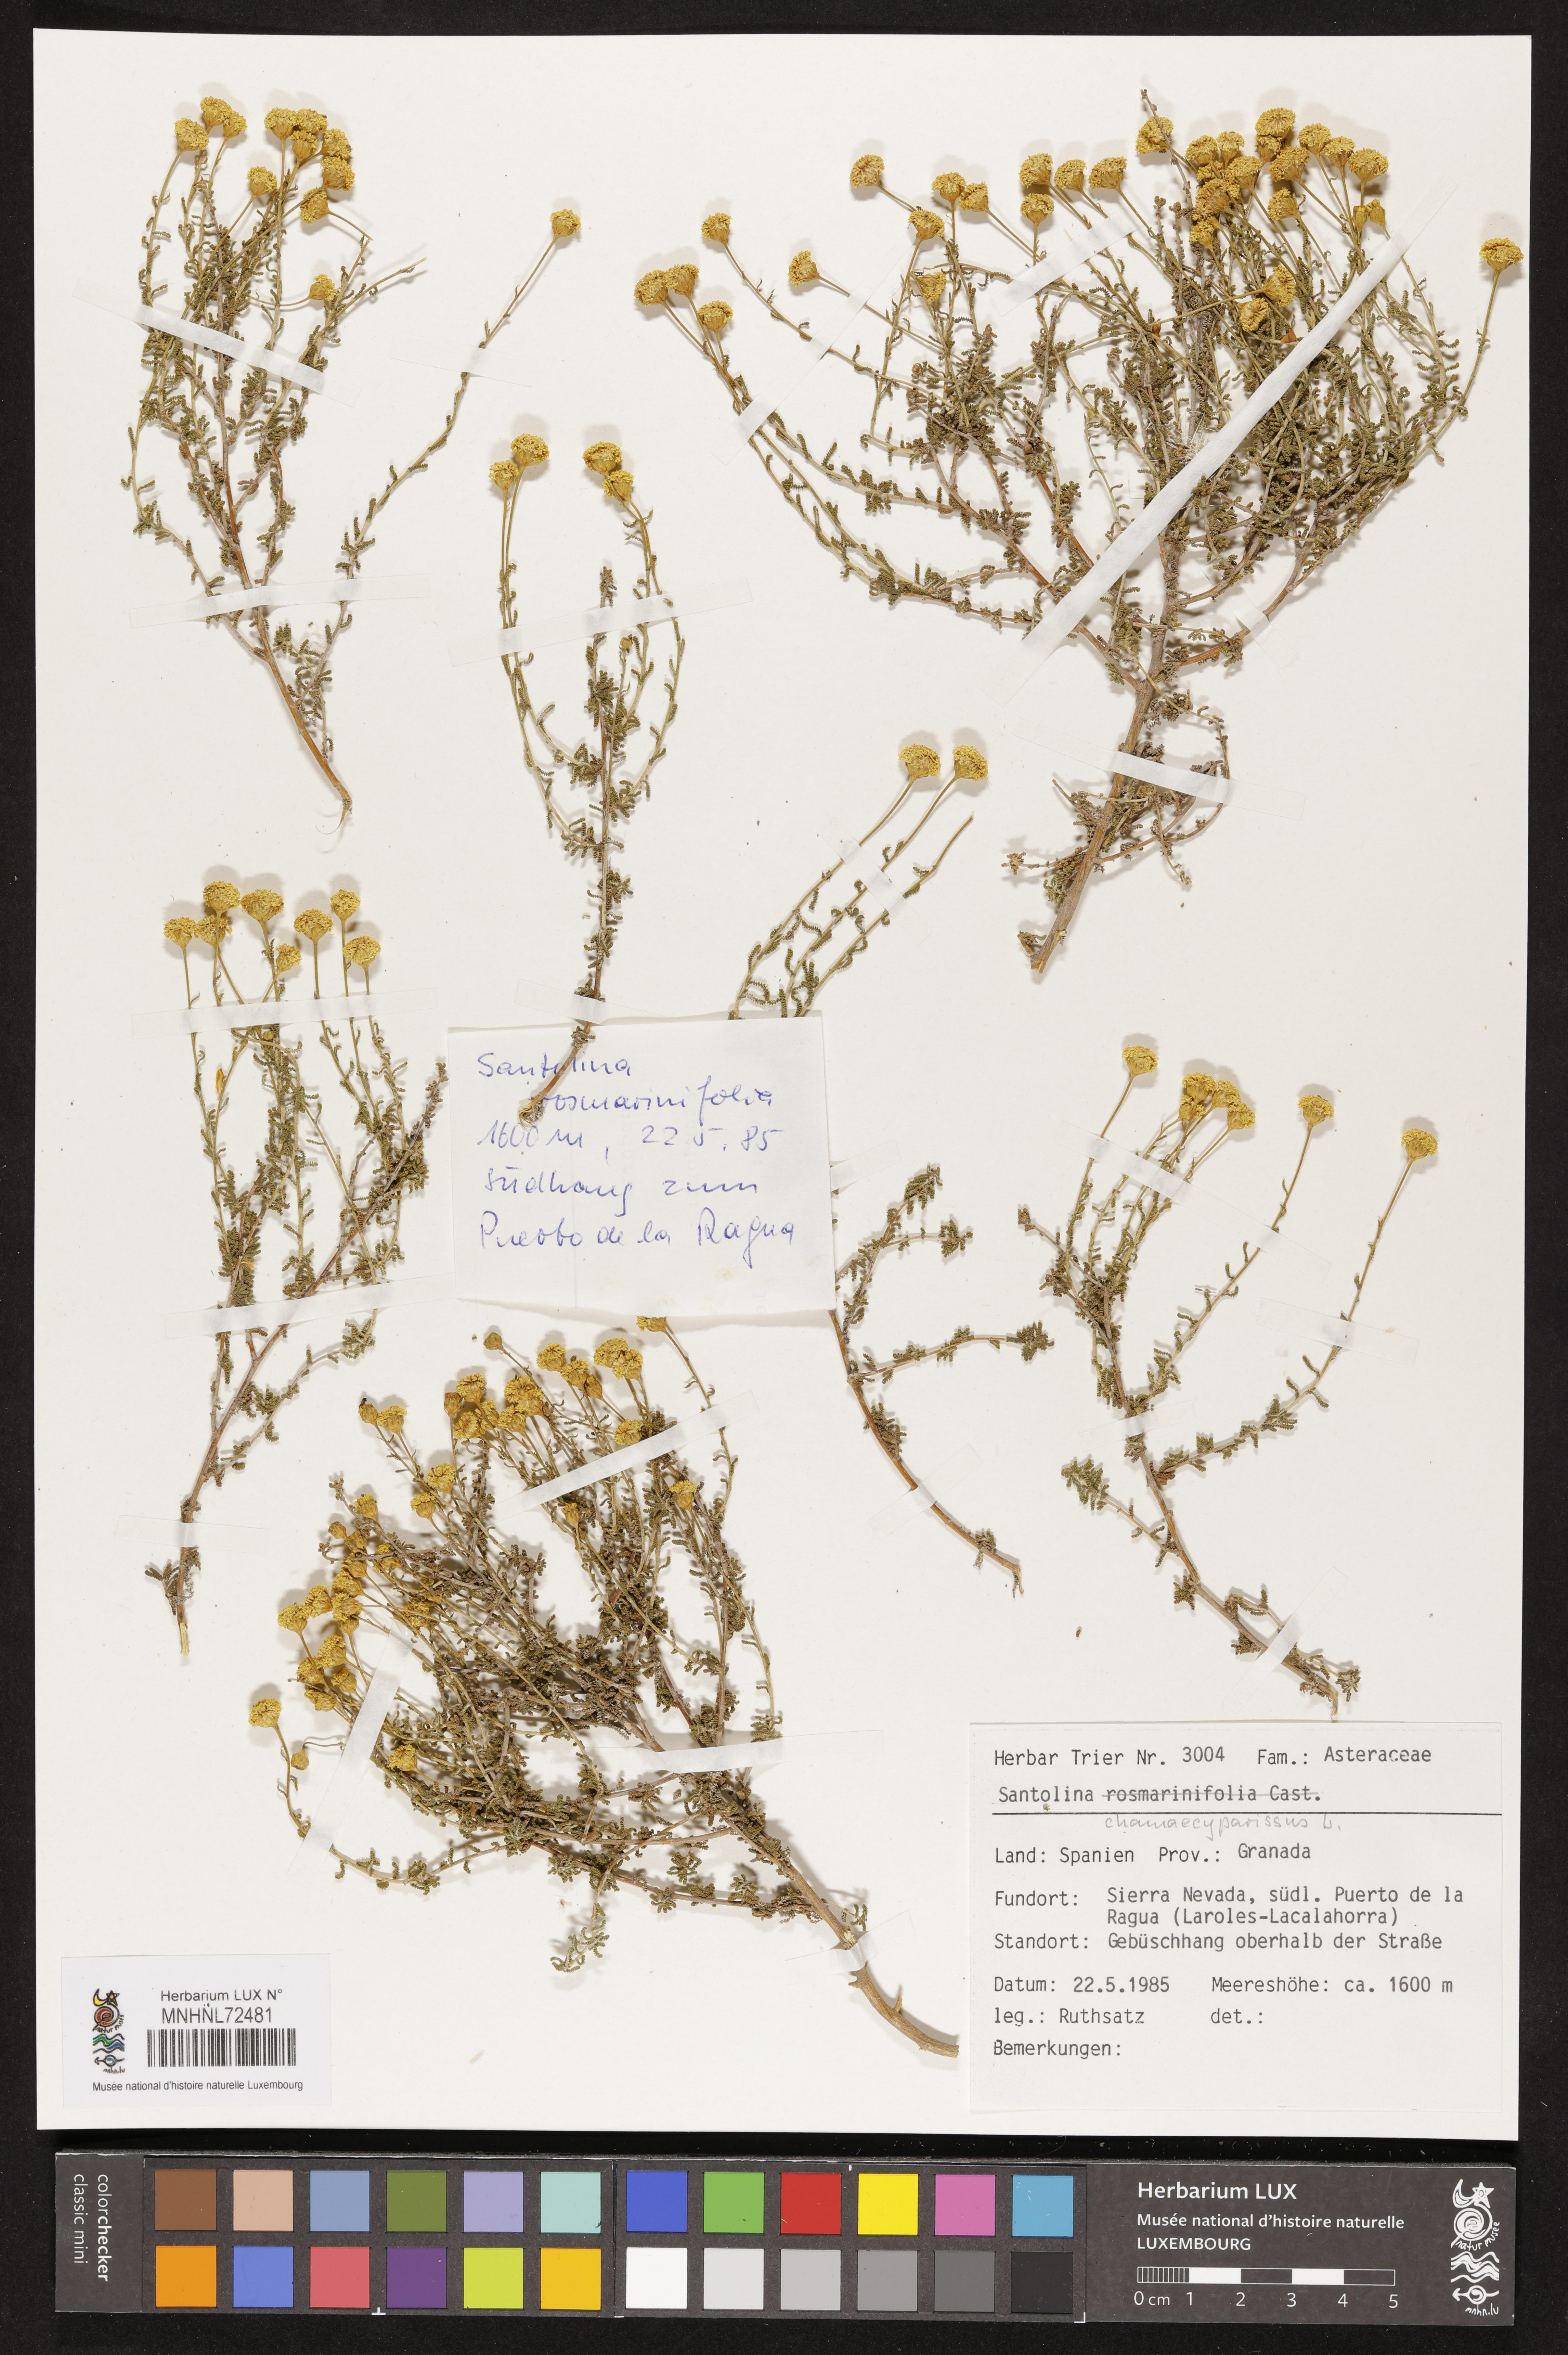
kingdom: Plantae
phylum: Tracheophyta
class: Magnoliopsida
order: Asterales
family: Asteraceae
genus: Santolina
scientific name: Santolina chamaecyparissus
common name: Lavender-cotton
